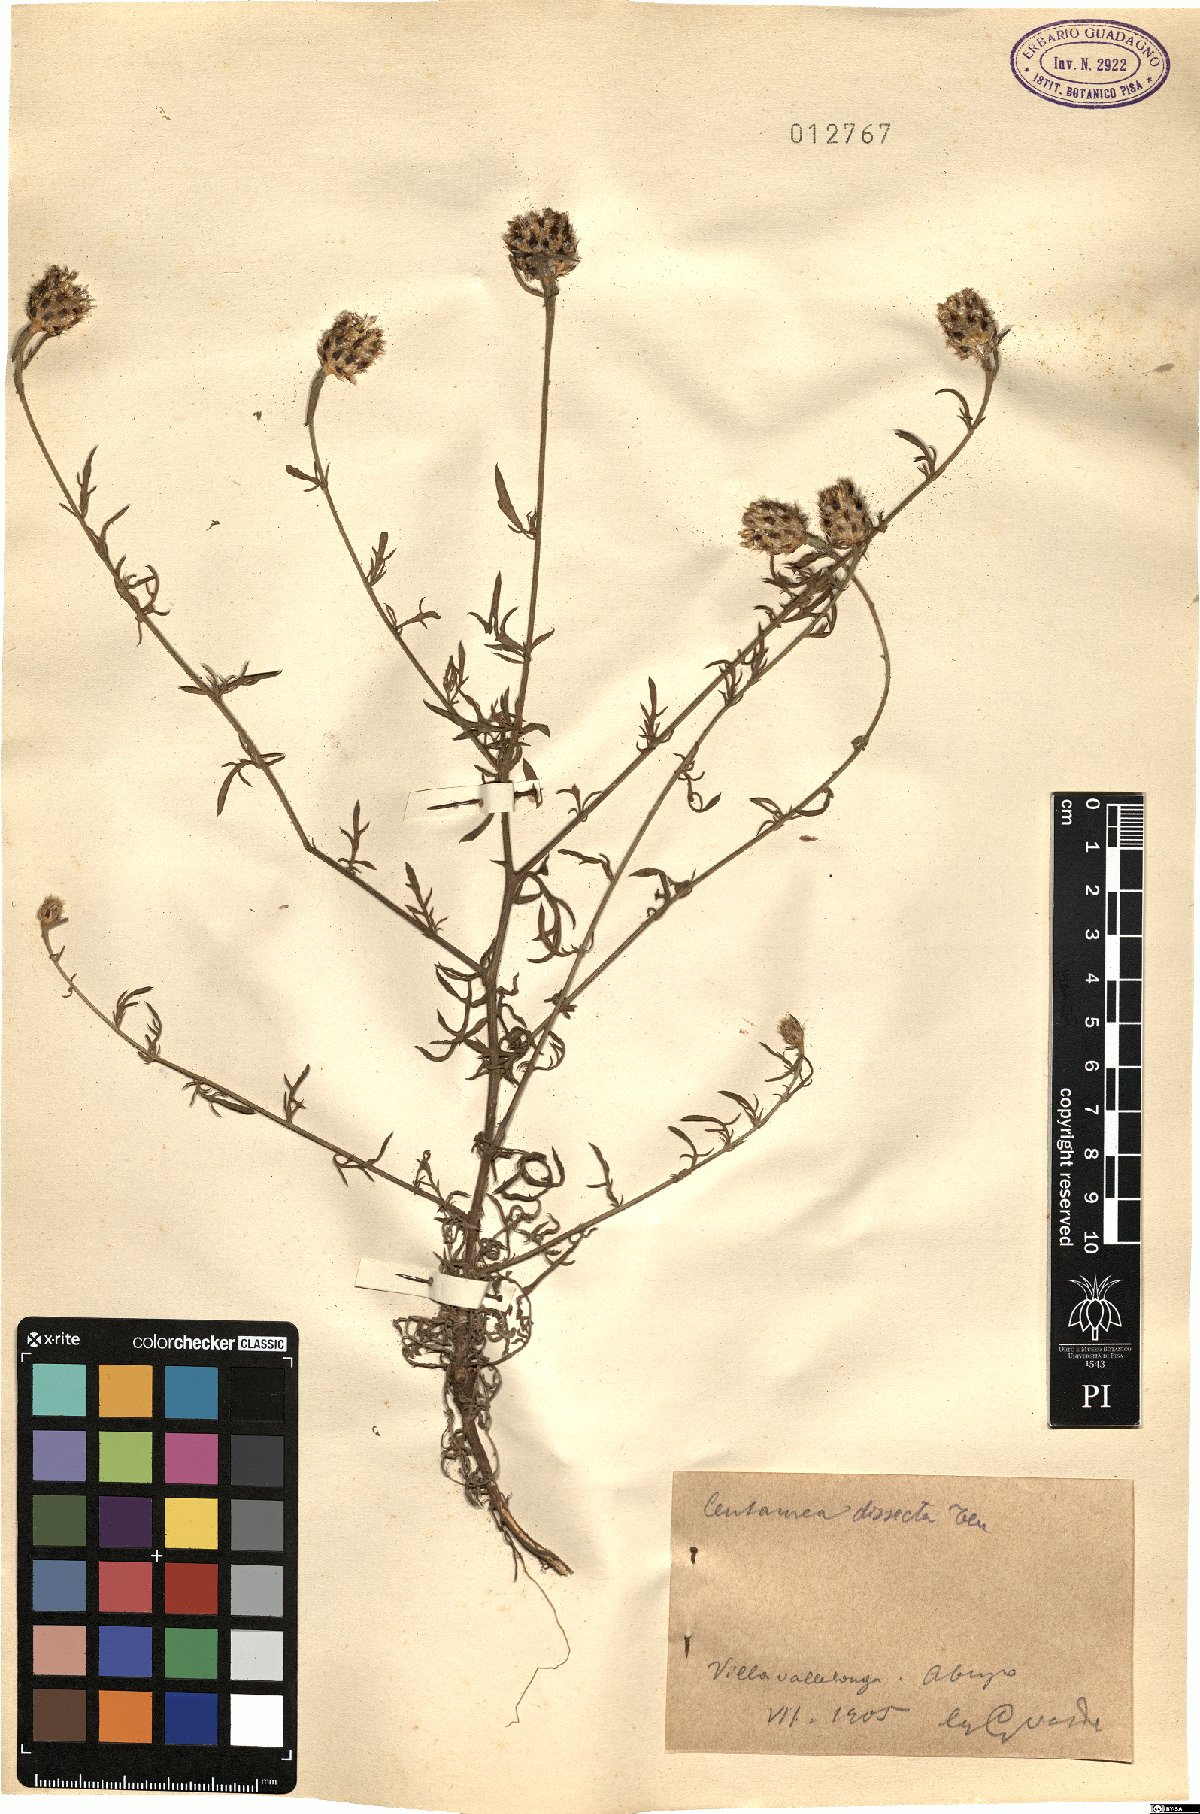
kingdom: Plantae
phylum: Tracheophyta
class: Magnoliopsida
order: Asterales
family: Asteraceae
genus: Centaurea
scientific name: Centaurea tenorei
